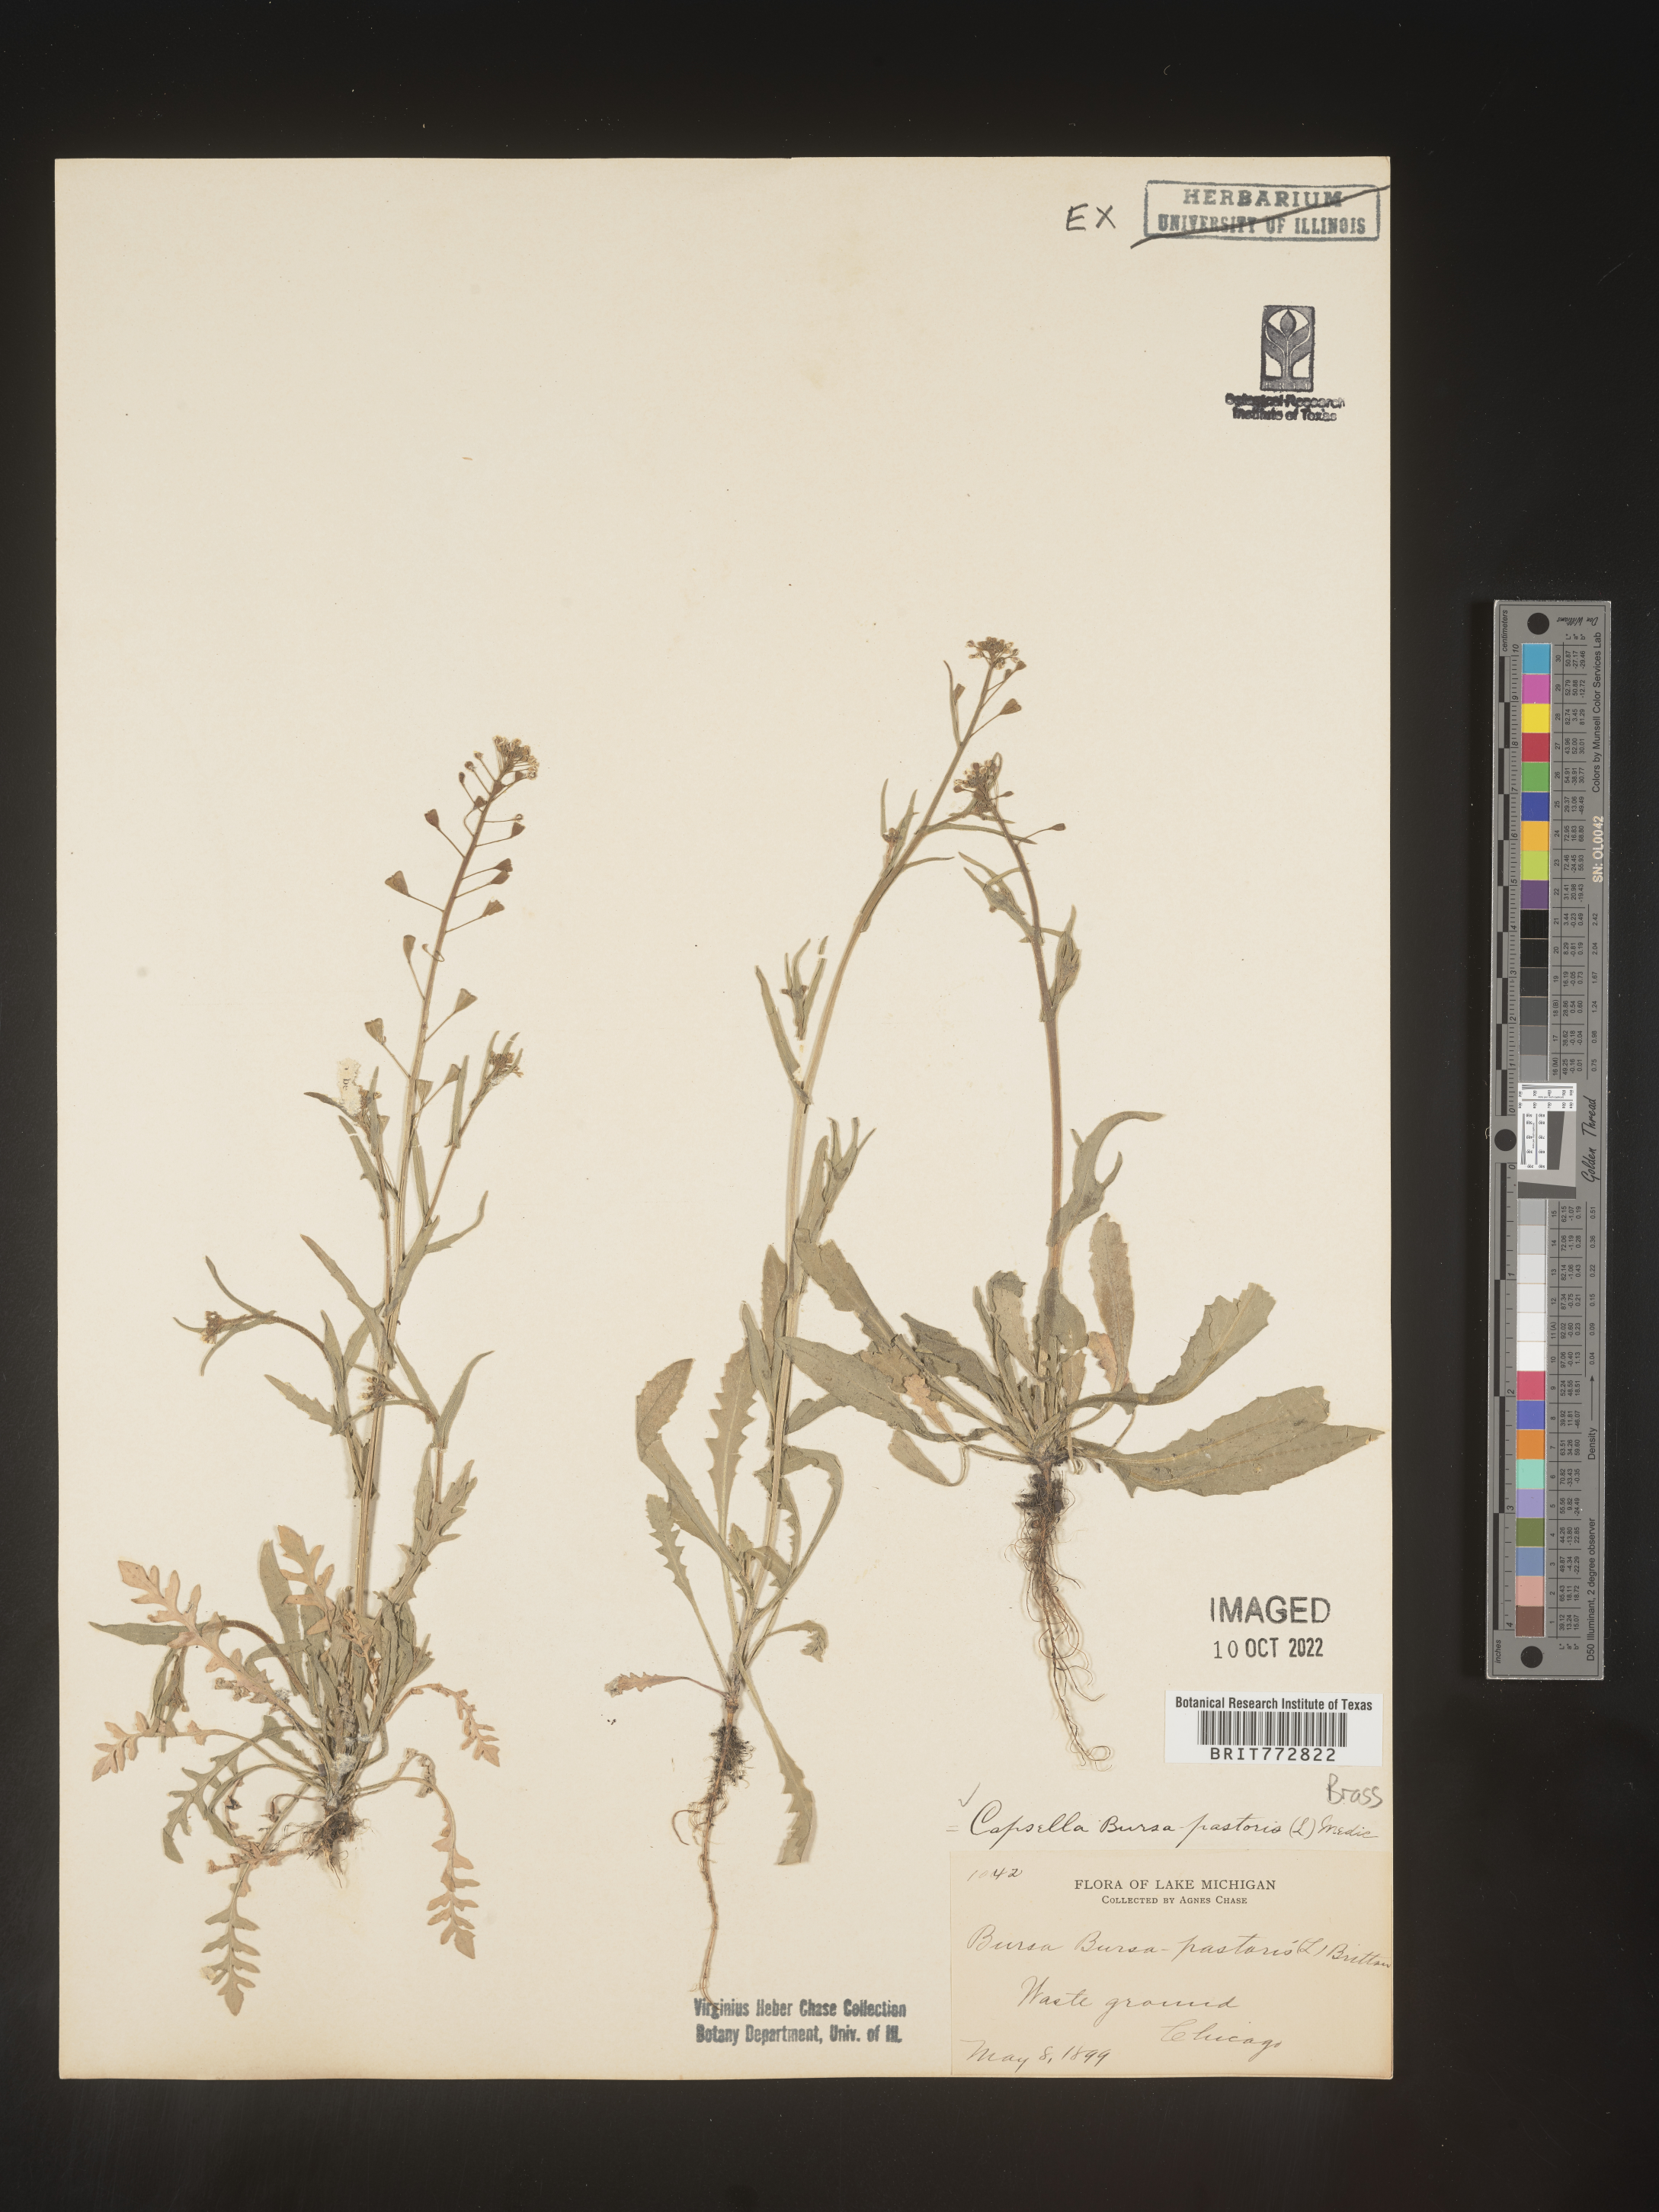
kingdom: Plantae
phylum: Tracheophyta
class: Magnoliopsida
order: Brassicales
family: Brassicaceae
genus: Capsella
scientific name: Capsella bursa-pastoris
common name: Shepherd's purse
